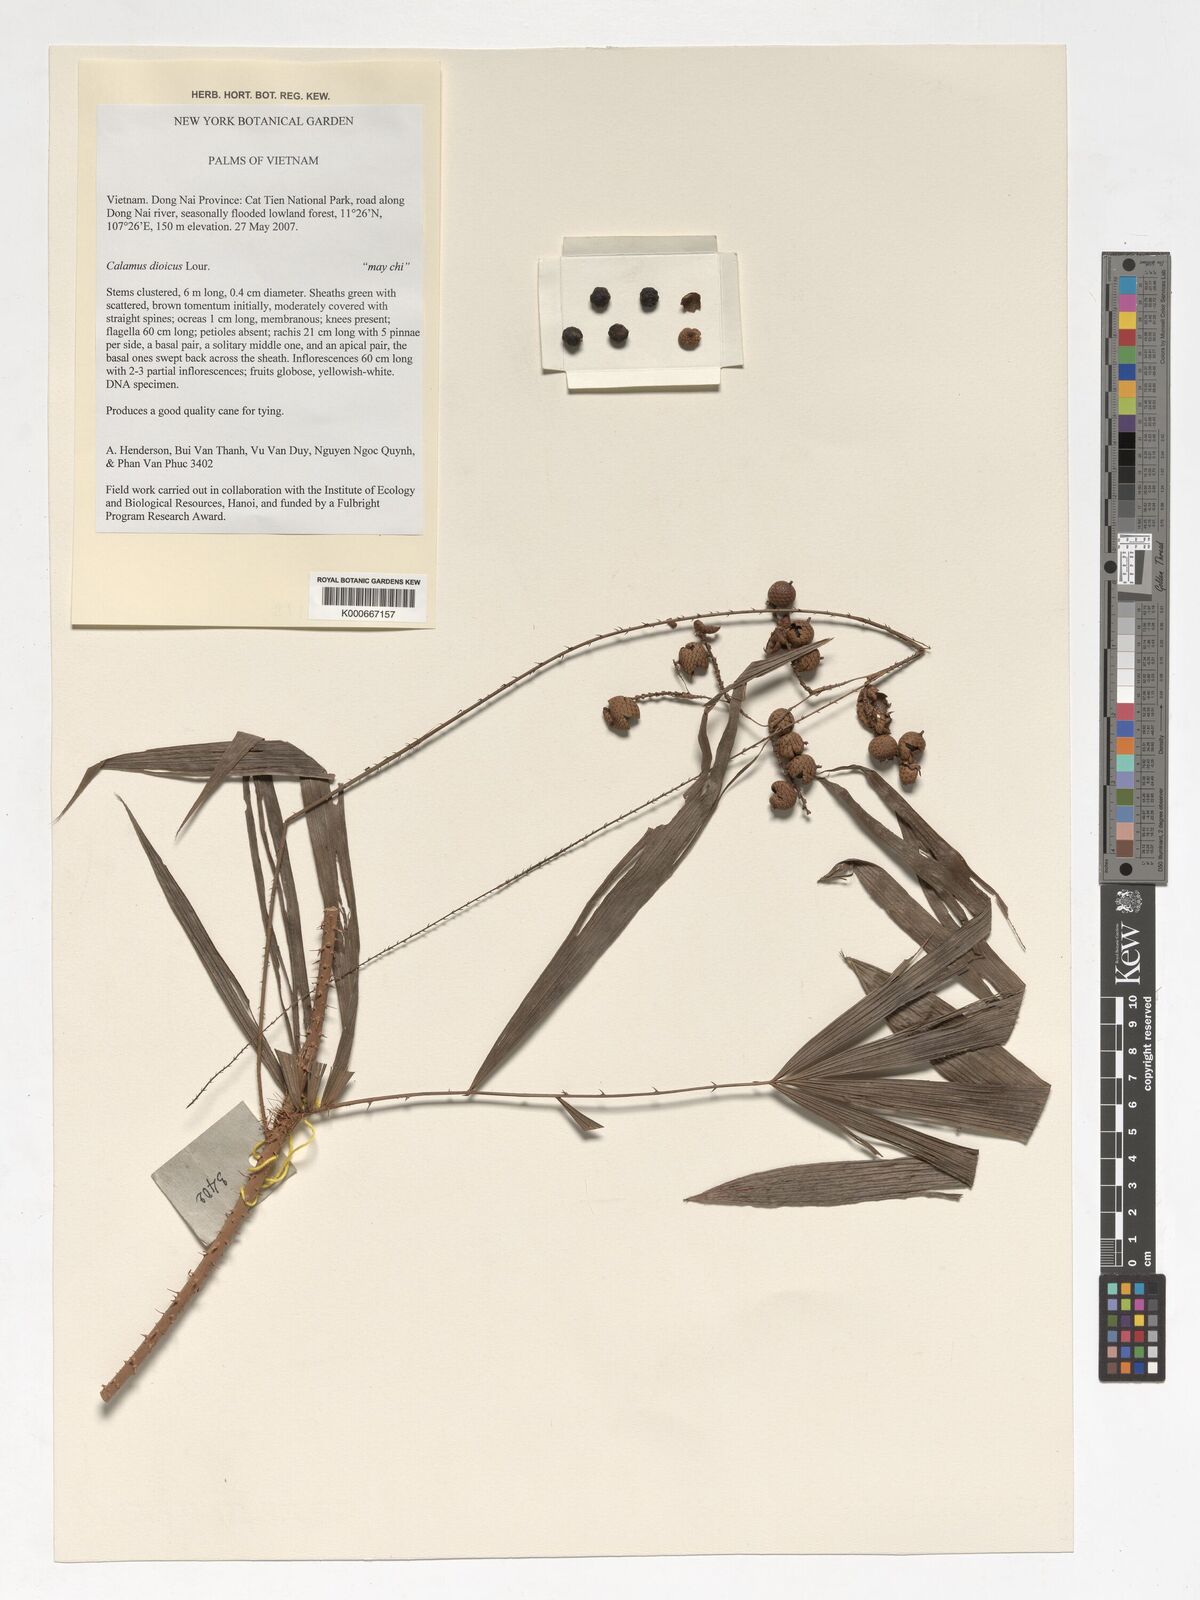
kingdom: Plantae
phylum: Tracheophyta
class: Liliopsida
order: Arecales
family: Arecaceae
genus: Calamus
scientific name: Calamus dioicus
